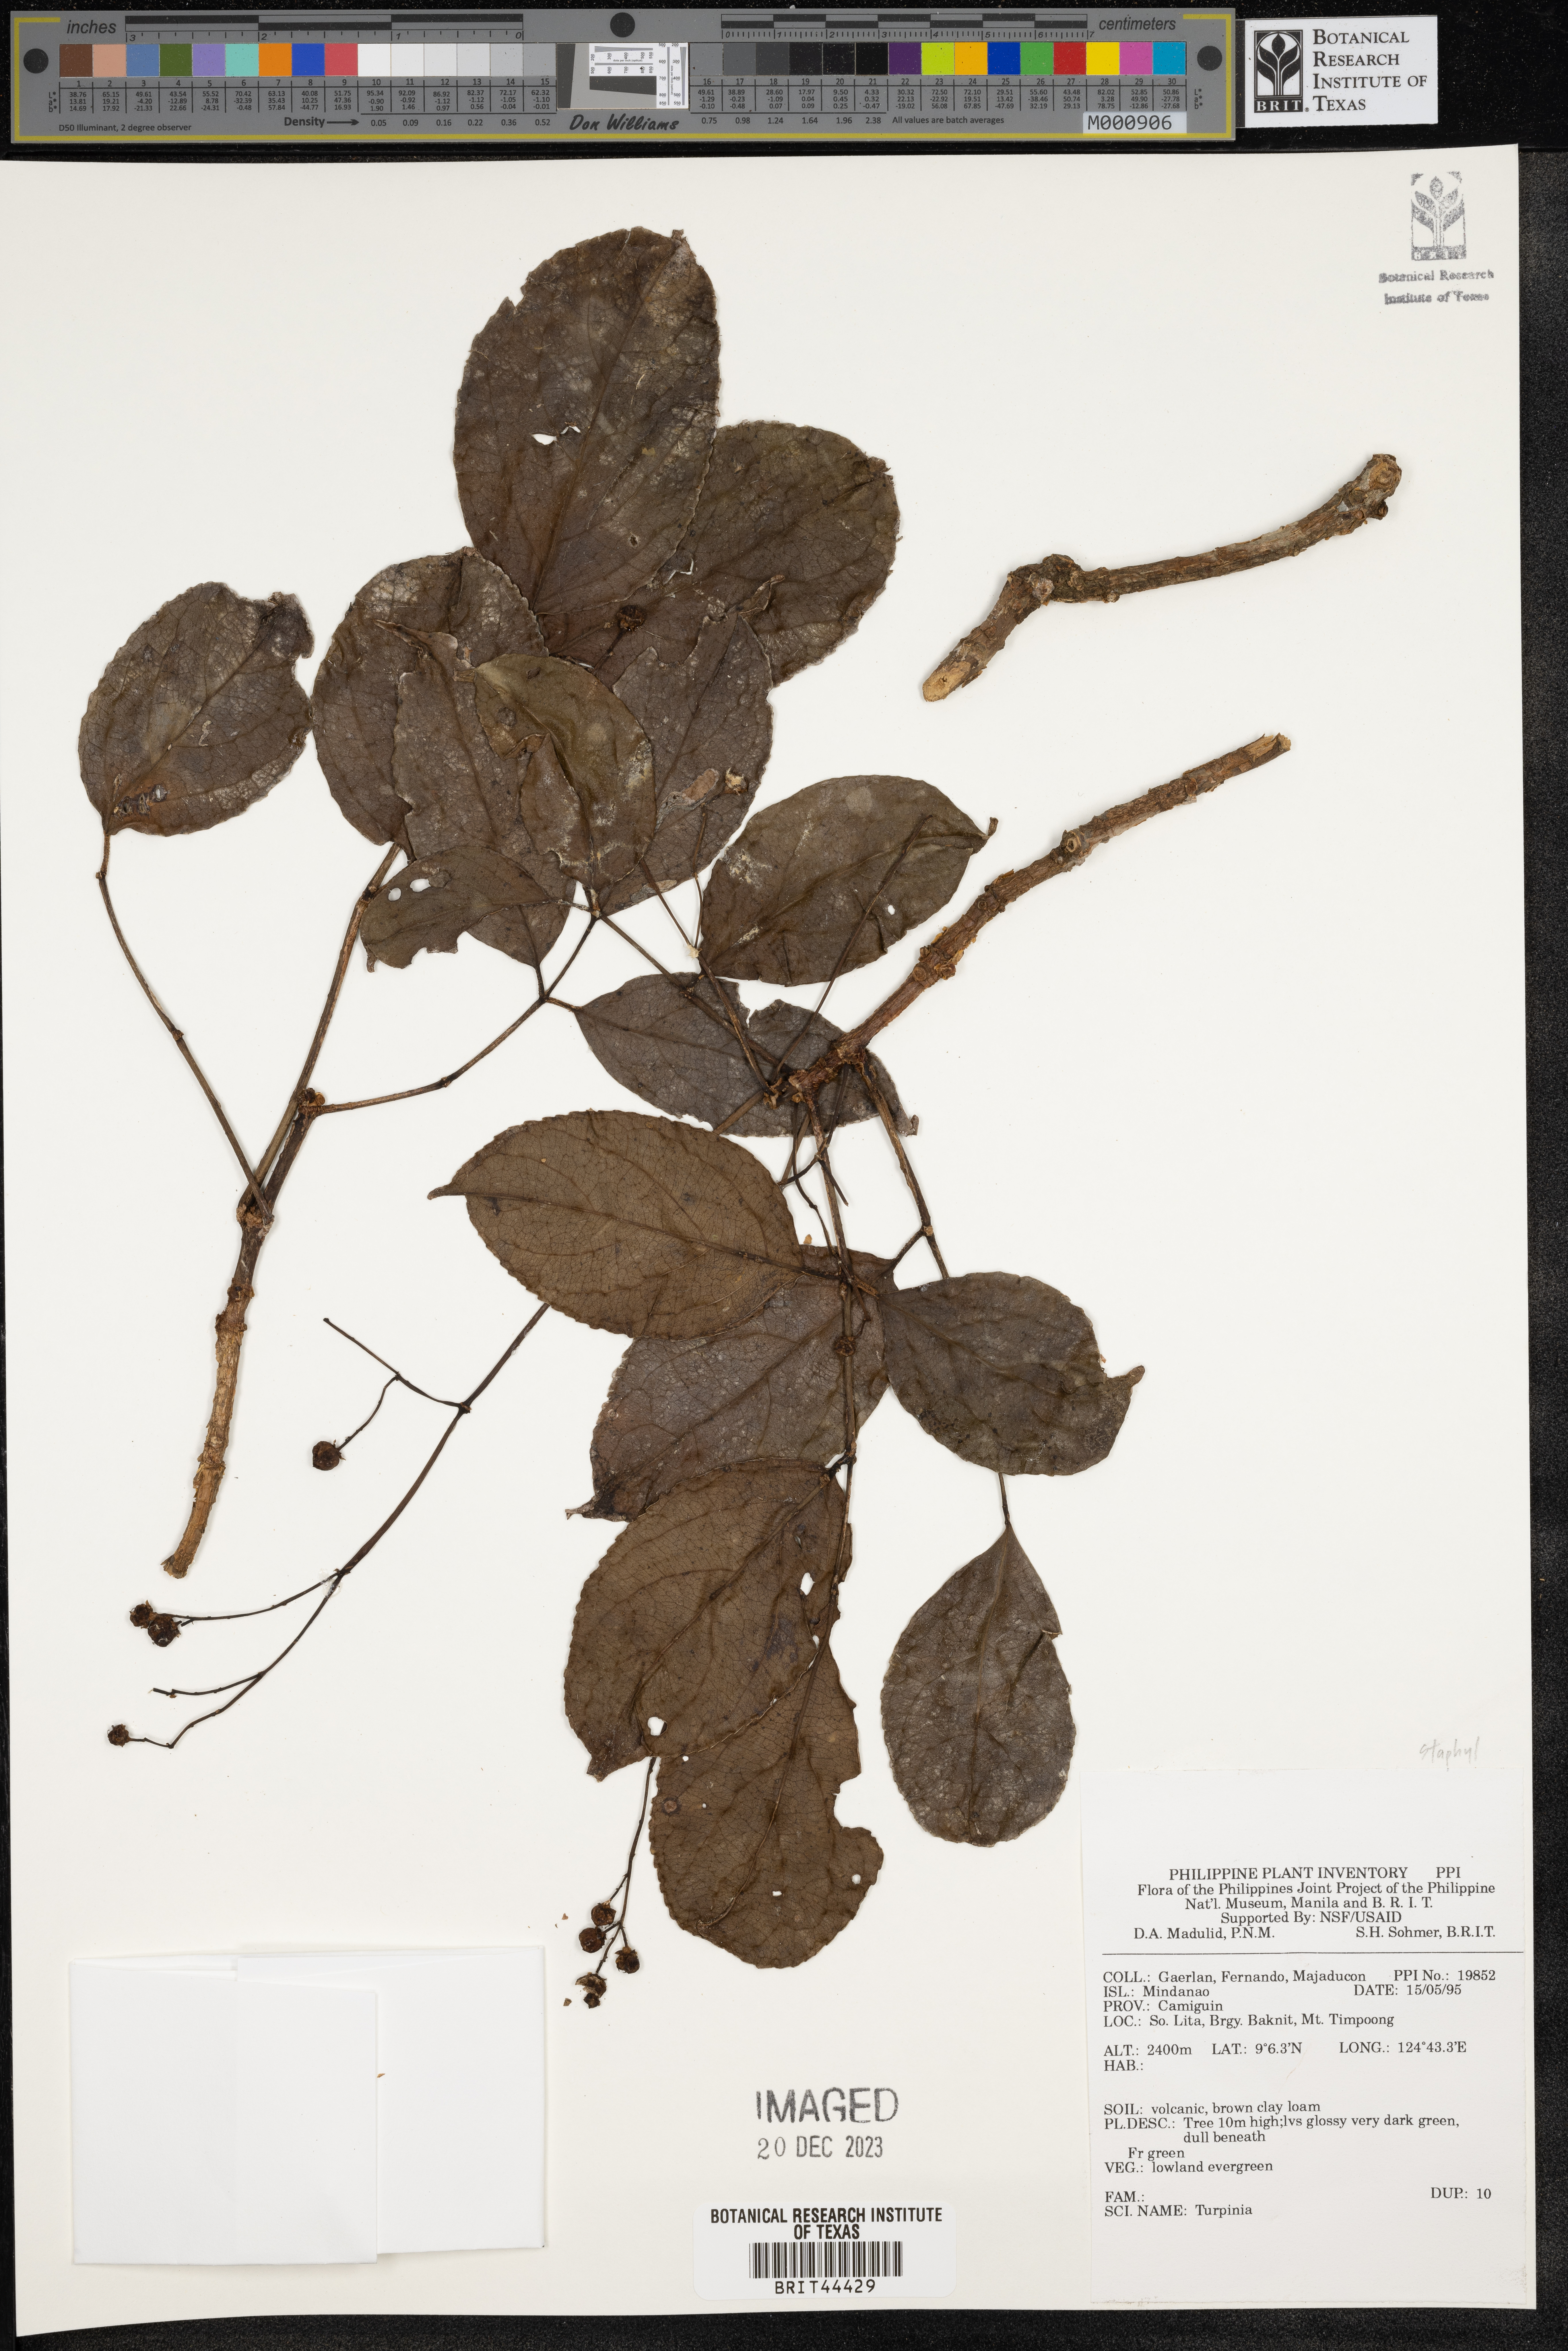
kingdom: Plantae
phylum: Tracheophyta
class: Magnoliopsida
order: Crossosomatales
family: Staphyleaceae
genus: Turpinia
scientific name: Turpinia
